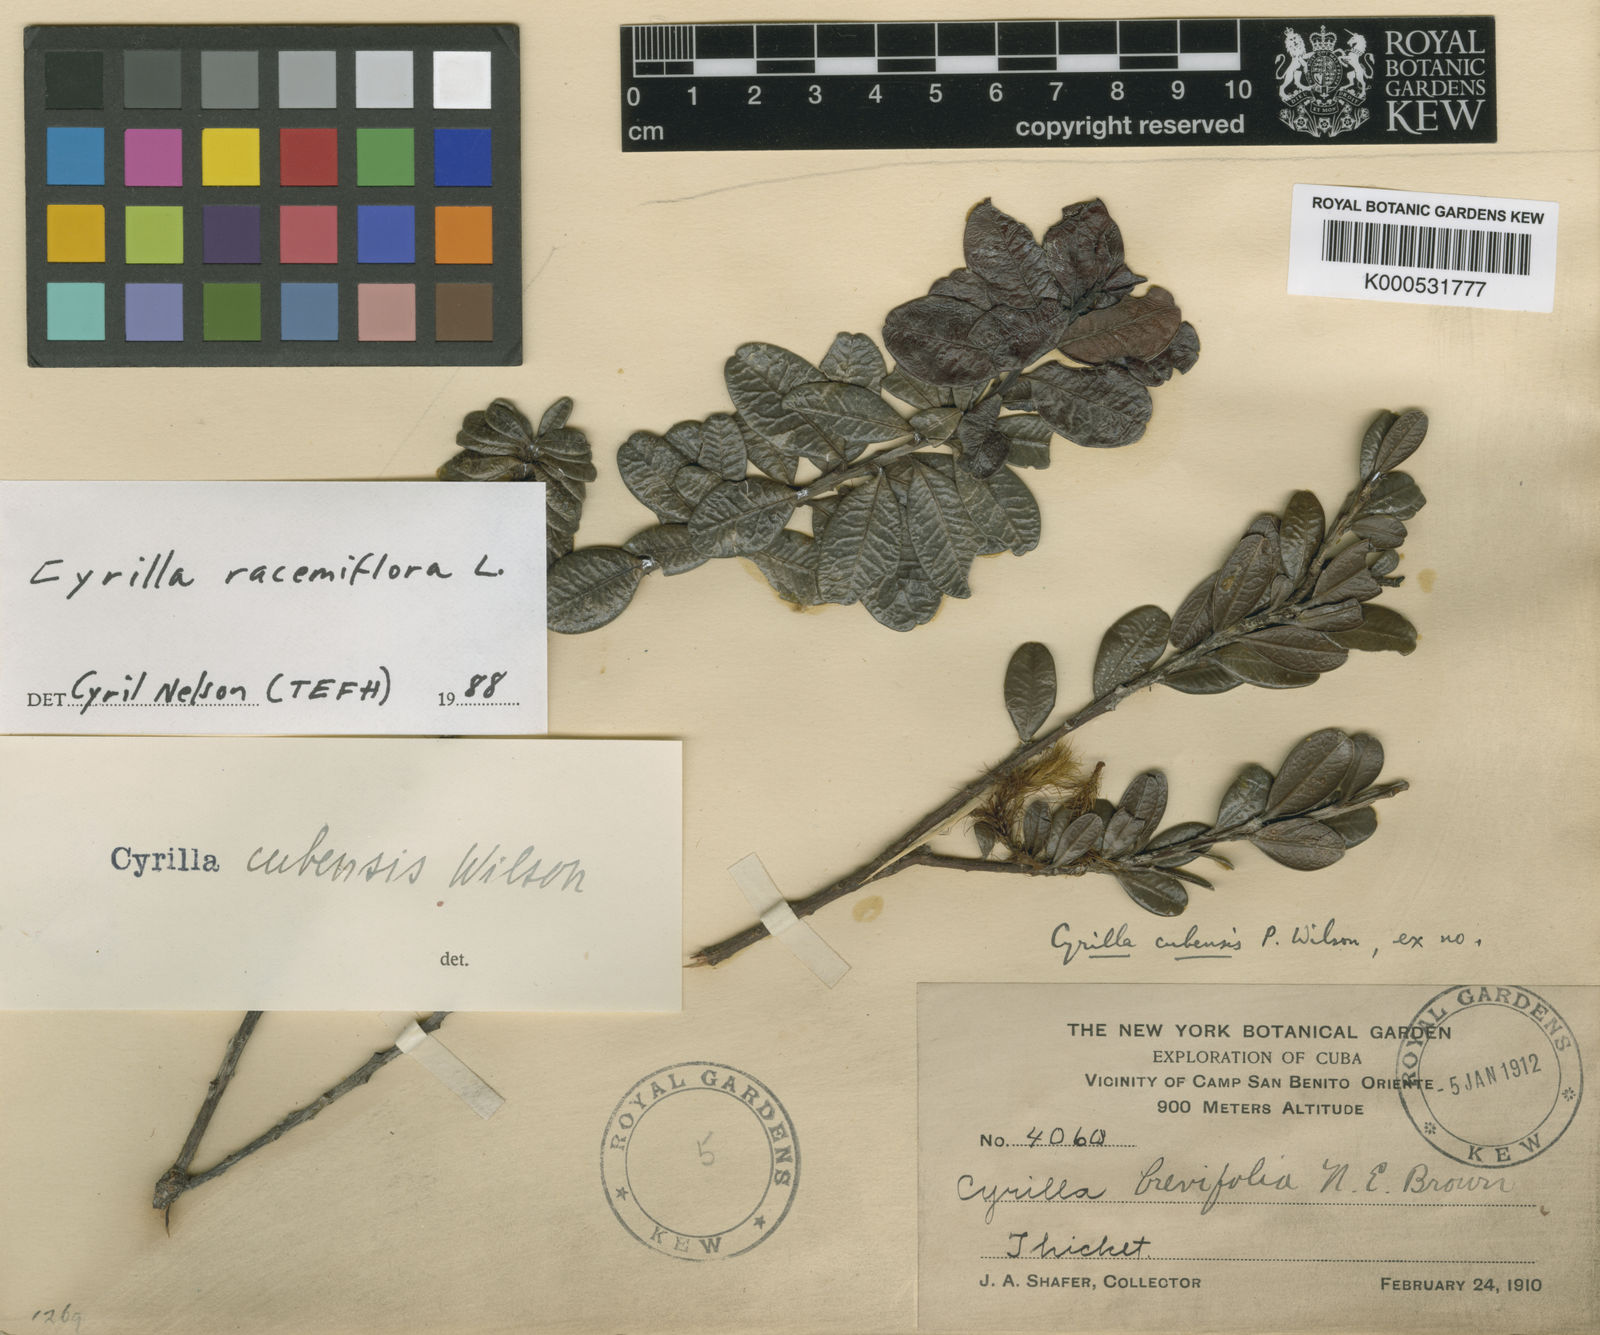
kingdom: Plantae
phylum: Tracheophyta
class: Magnoliopsida
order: Ericales
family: Cyrillaceae
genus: Cyrilla
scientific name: Cyrilla cubensis
